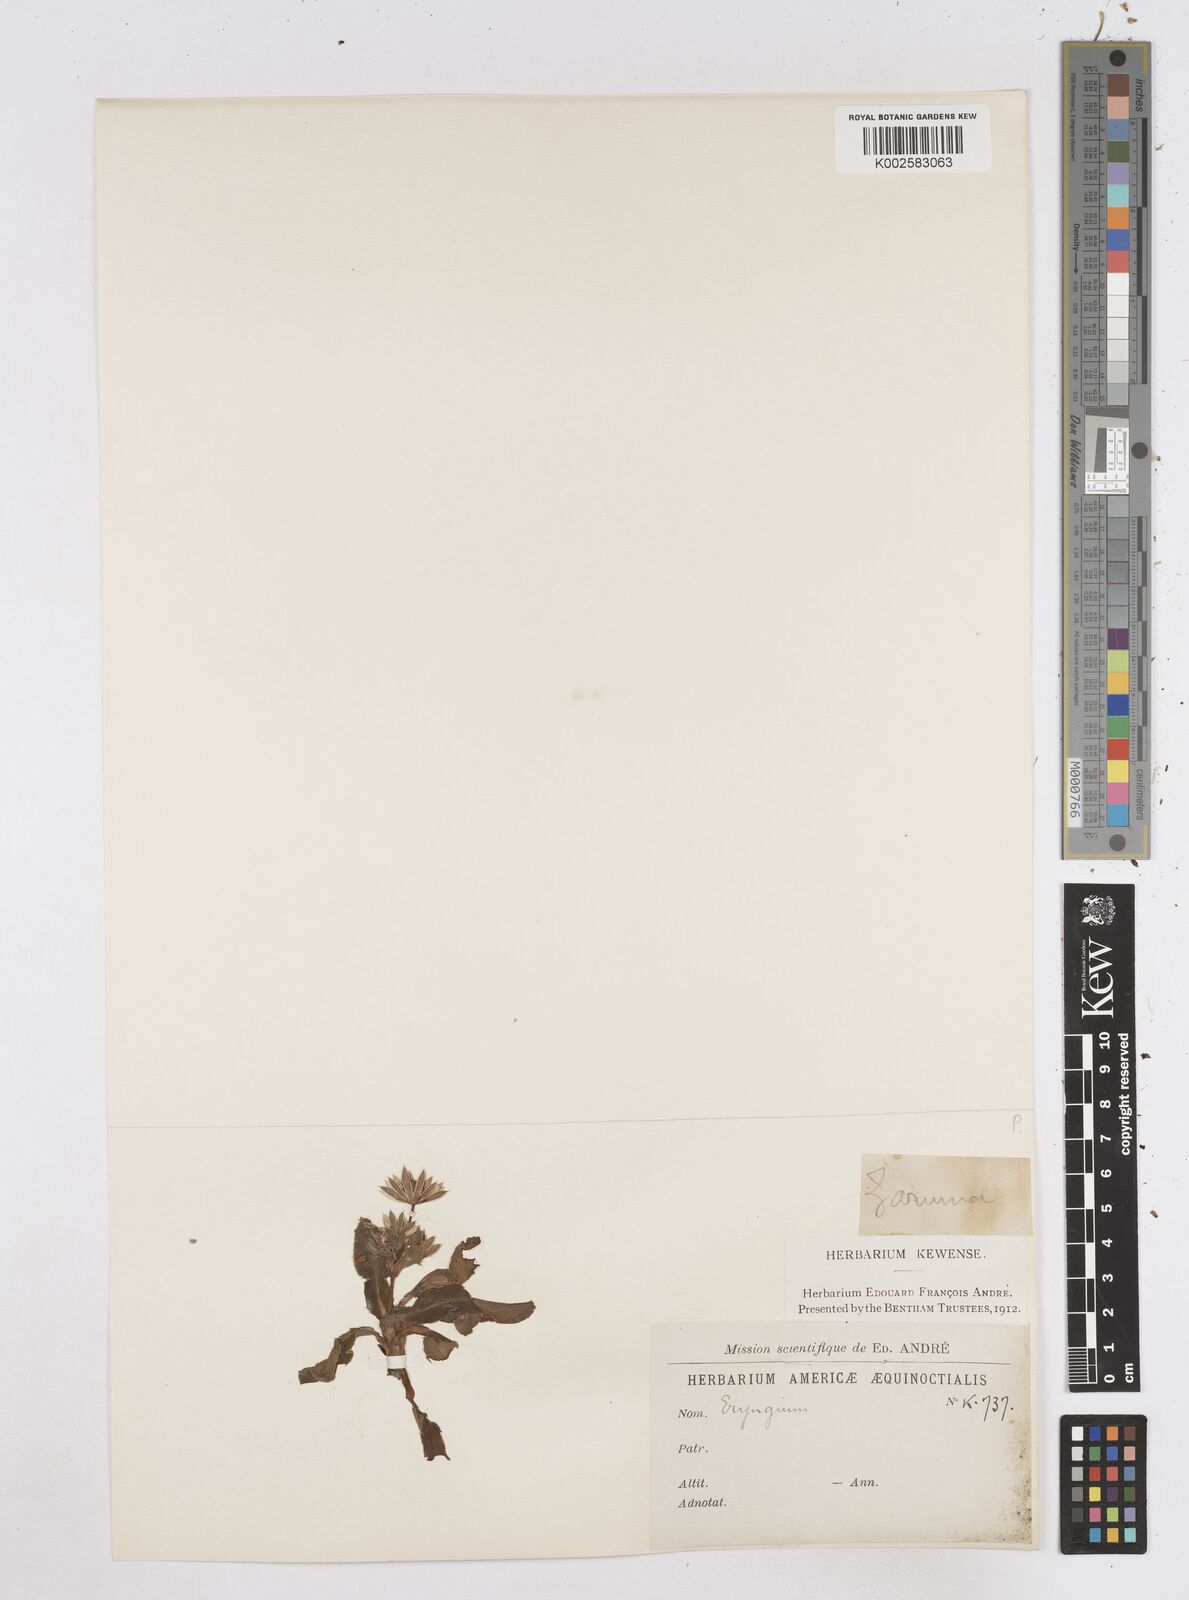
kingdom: Plantae
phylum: Tracheophyta
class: Magnoliopsida
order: Apiales
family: Apiaceae
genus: Eryngium
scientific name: Eryngium humile
